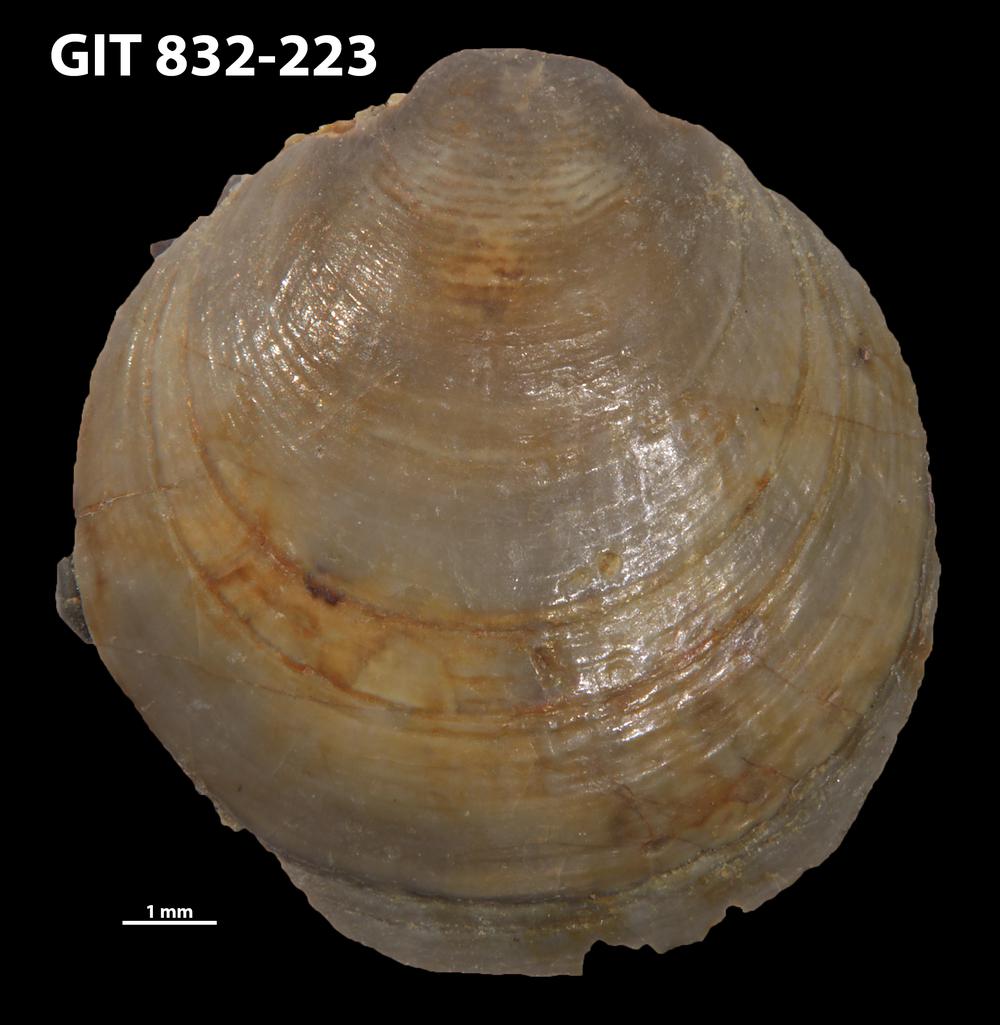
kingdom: Animalia
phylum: Brachiopoda
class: Lingulata
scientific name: Lingulata
